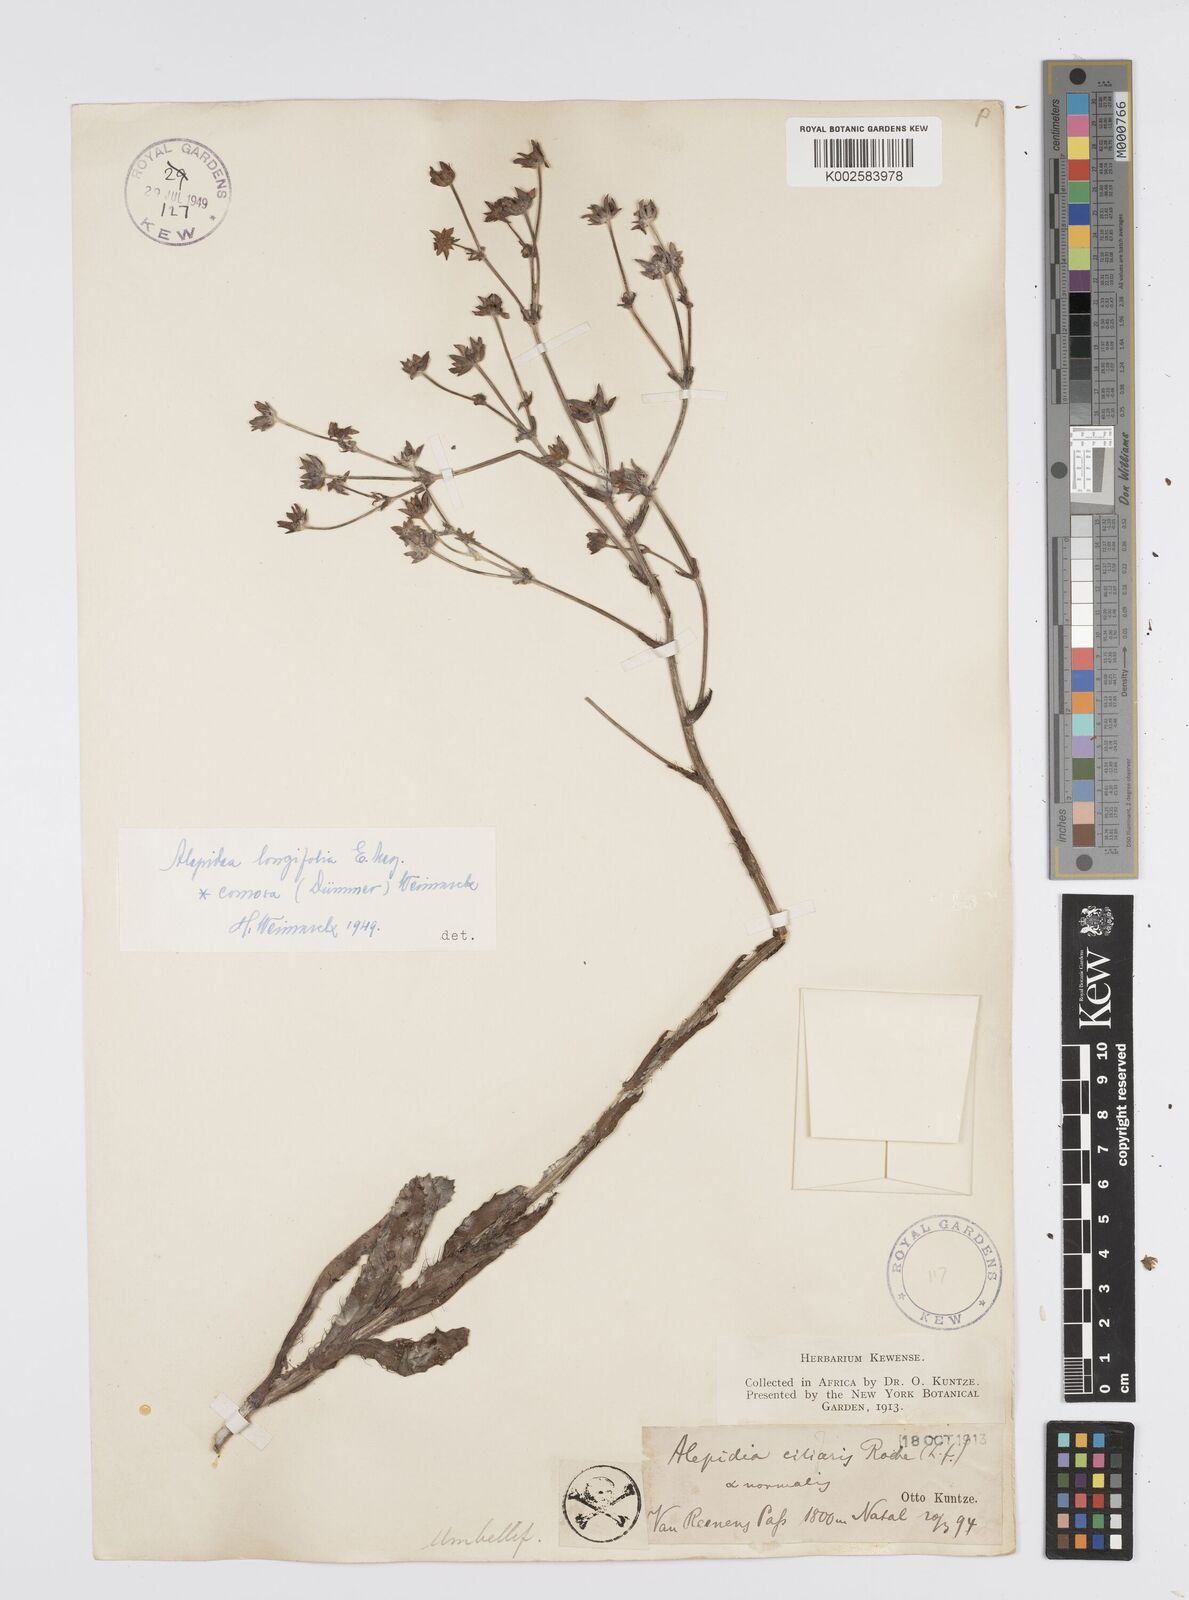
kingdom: Plantae
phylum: Tracheophyta
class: Magnoliopsida
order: Apiales
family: Apiaceae
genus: Alepidea
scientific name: Alepidea
